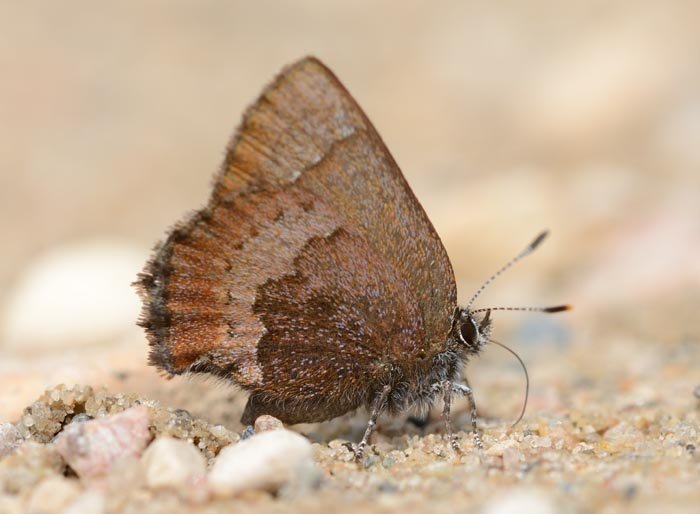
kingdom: Animalia
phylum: Arthropoda
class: Insecta
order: Lepidoptera
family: Lycaenidae
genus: Incisalia
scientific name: Incisalia irioides
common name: Brown Elfin
